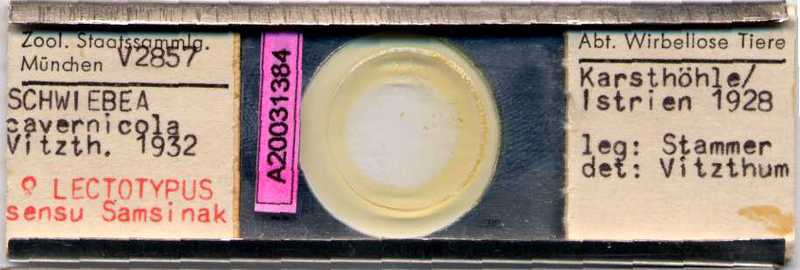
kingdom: Animalia
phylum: Arthropoda
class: Arachnida
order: Sarcoptiformes
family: Acaridae
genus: Schwiebea
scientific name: Schwiebea cavernicola
